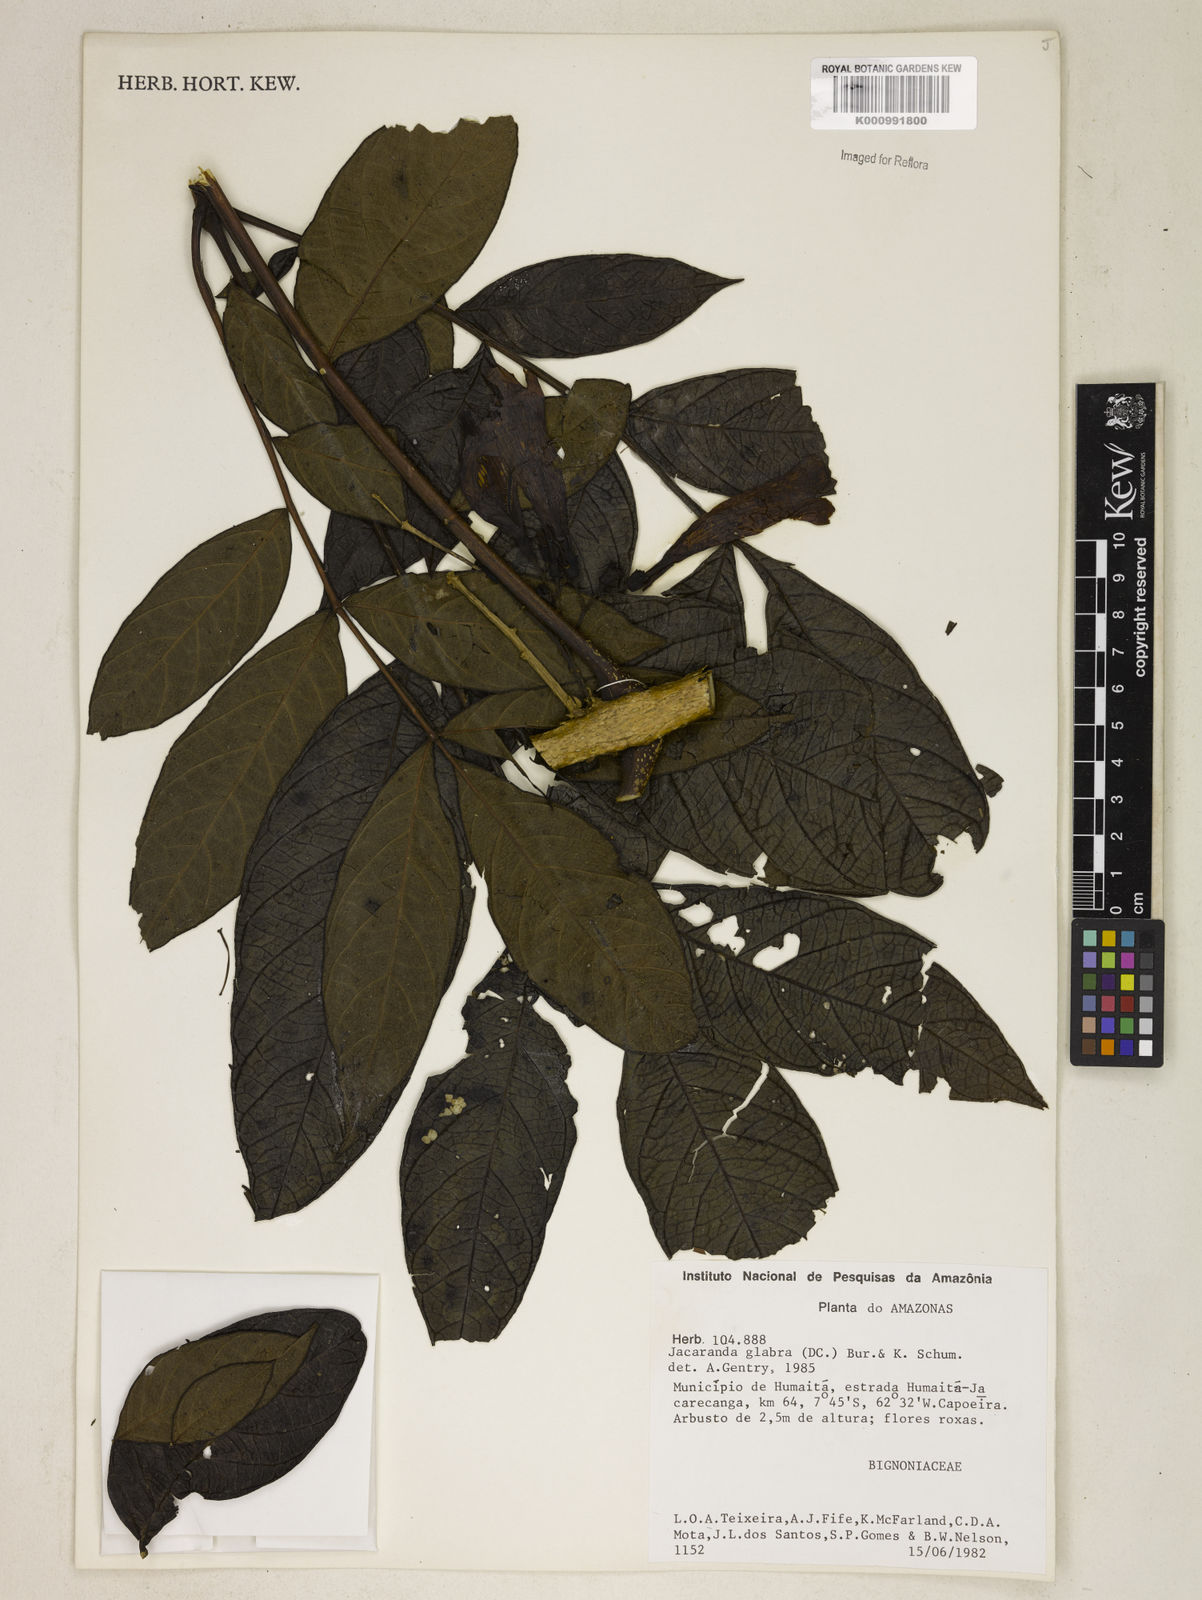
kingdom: Plantae
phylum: Tracheophyta
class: Magnoliopsida
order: Lamiales
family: Bignoniaceae
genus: Jacaranda
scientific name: Jacaranda glabra
